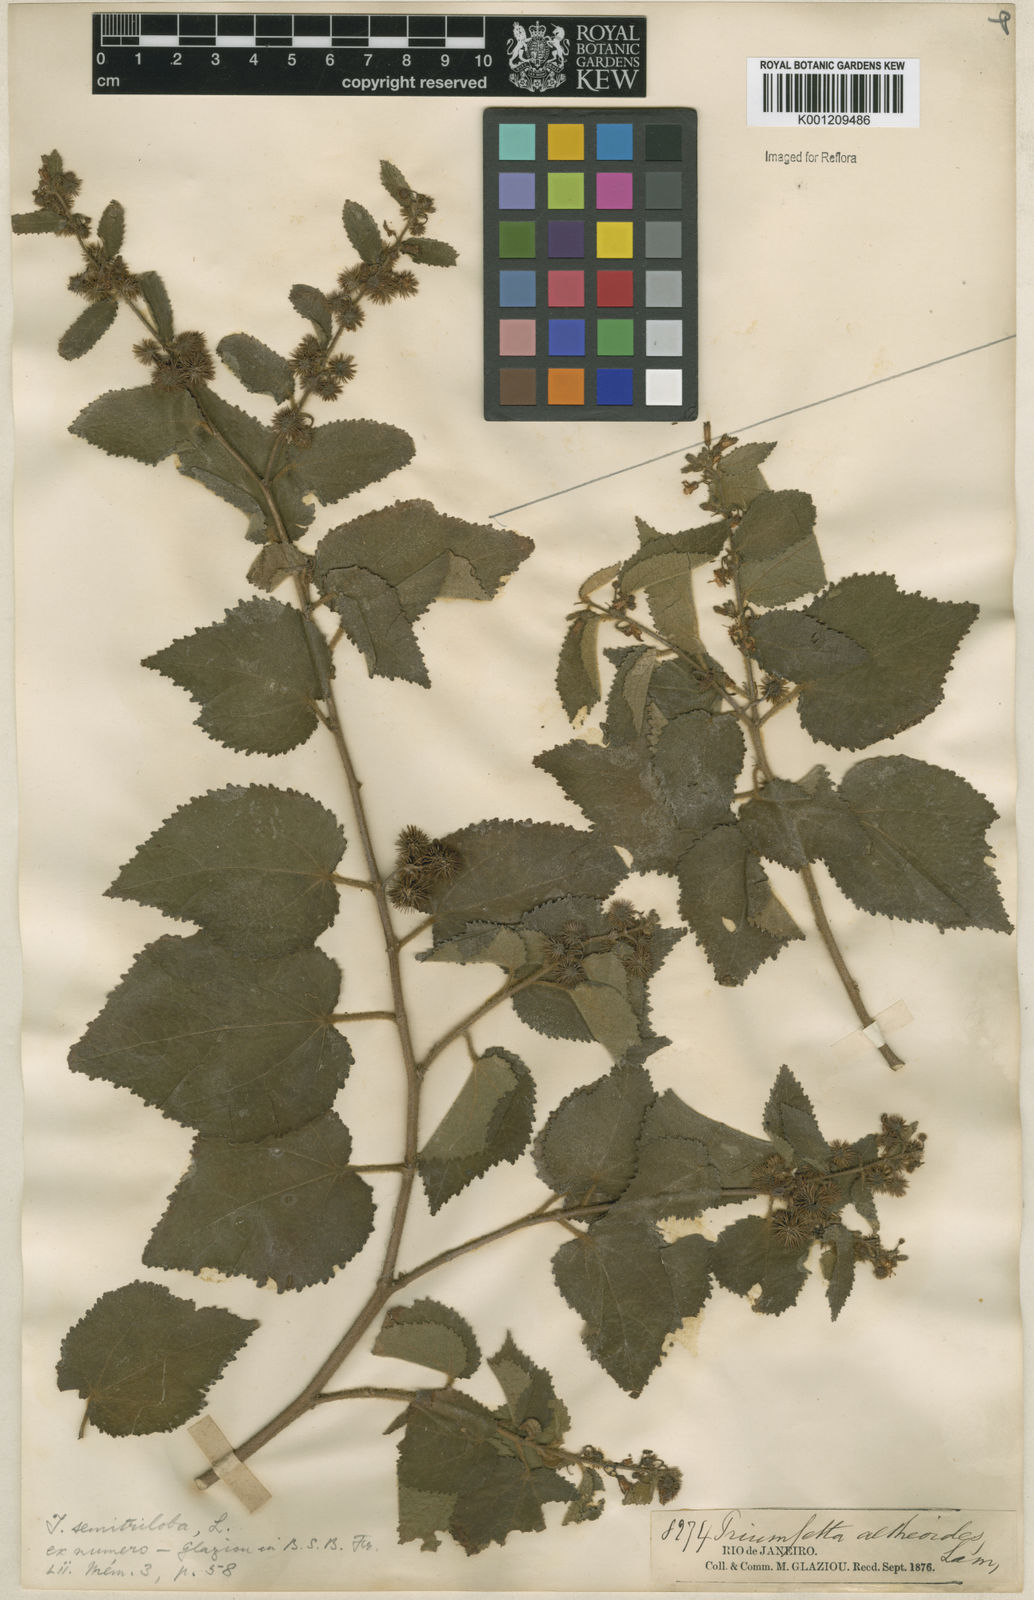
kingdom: Plantae
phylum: Tracheophyta
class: Magnoliopsida
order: Malvales
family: Malvaceae
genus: Triumfetta
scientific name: Triumfetta althaeoides
